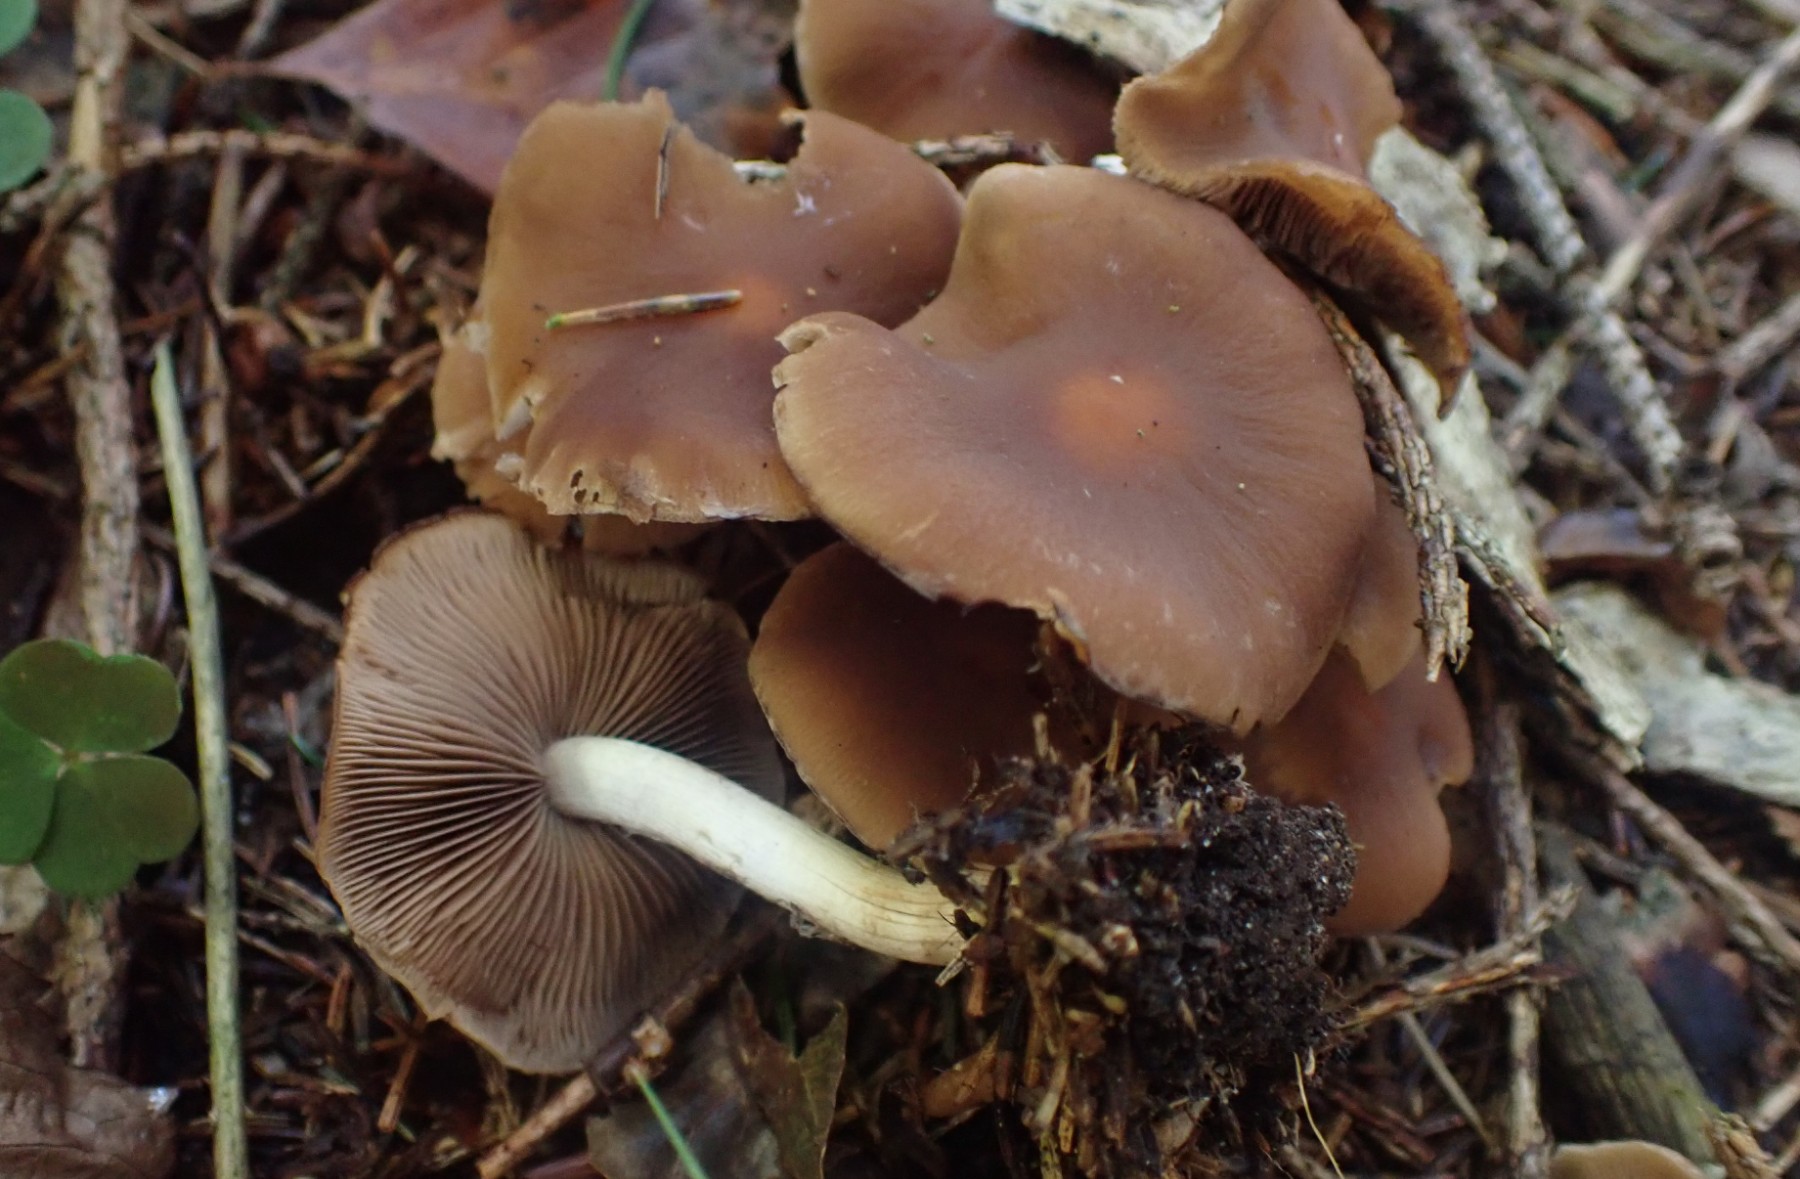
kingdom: Fungi
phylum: Basidiomycota
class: Agaricomycetes
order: Agaricales
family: Psathyrellaceae
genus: Psathyrella
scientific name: Psathyrella
